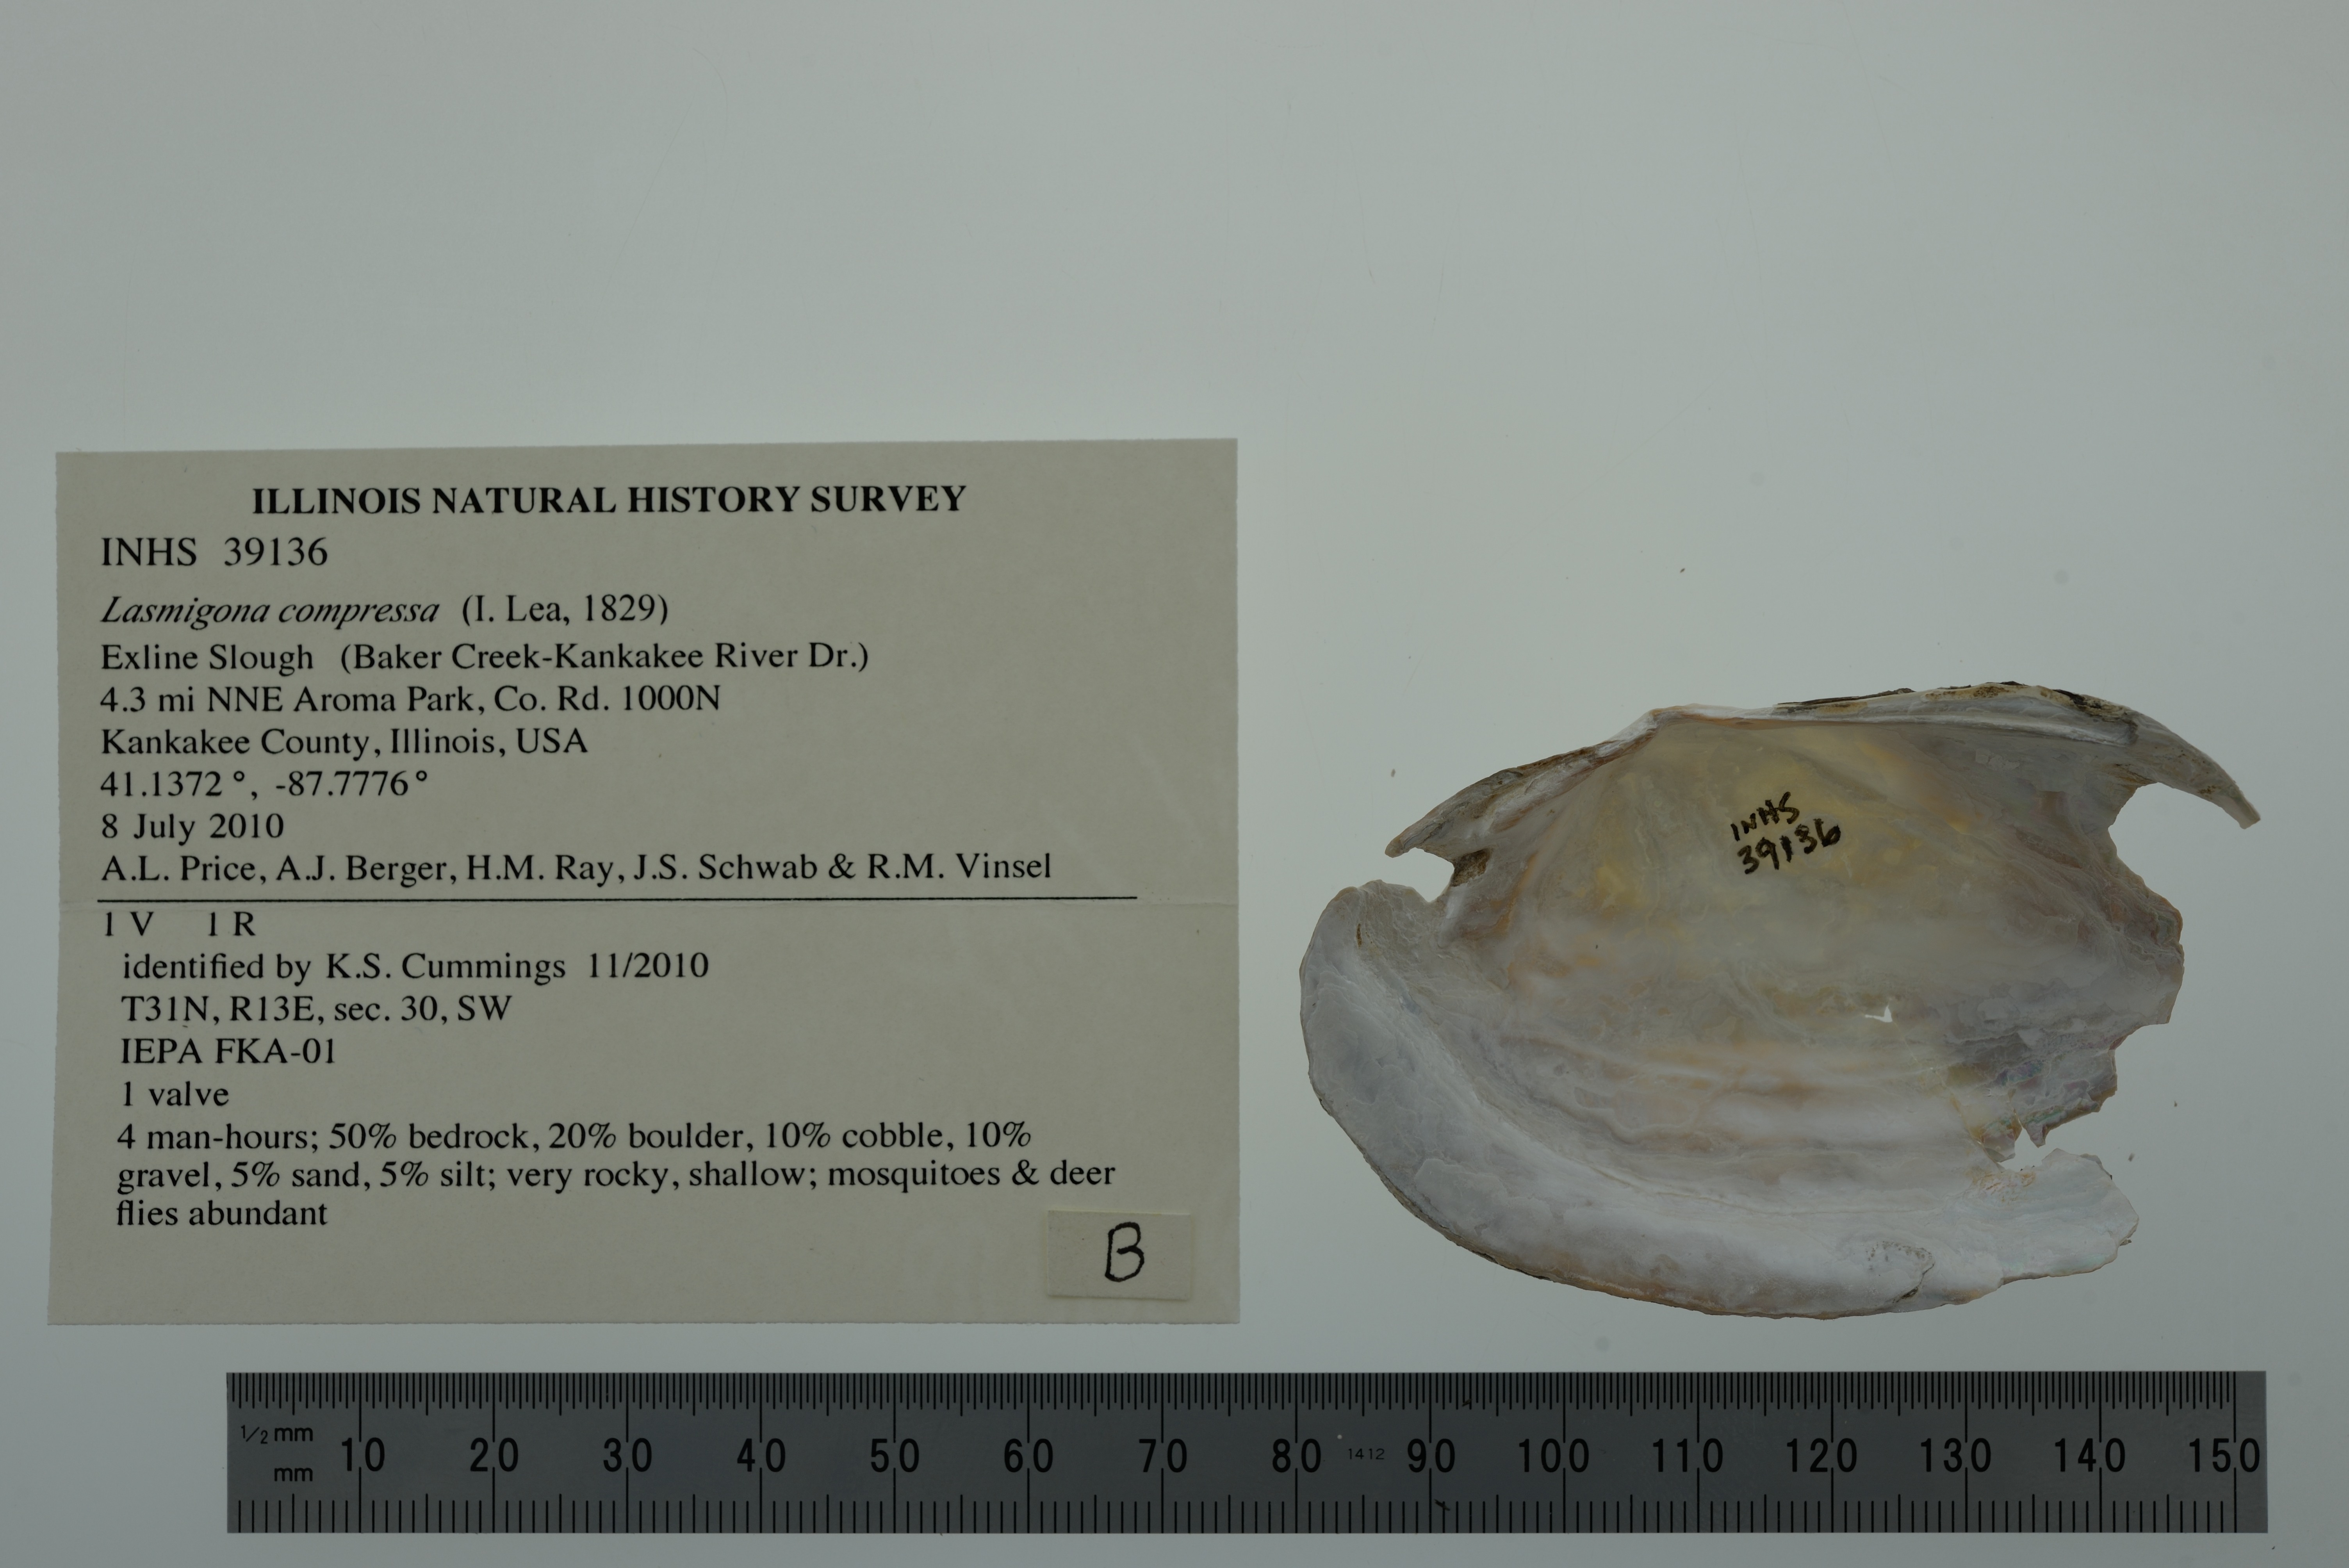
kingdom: Animalia
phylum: Mollusca
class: Bivalvia
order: Unionida
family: Unionidae
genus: Lasmigona
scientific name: Lasmigona compressa
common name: Creek heelsplitter
